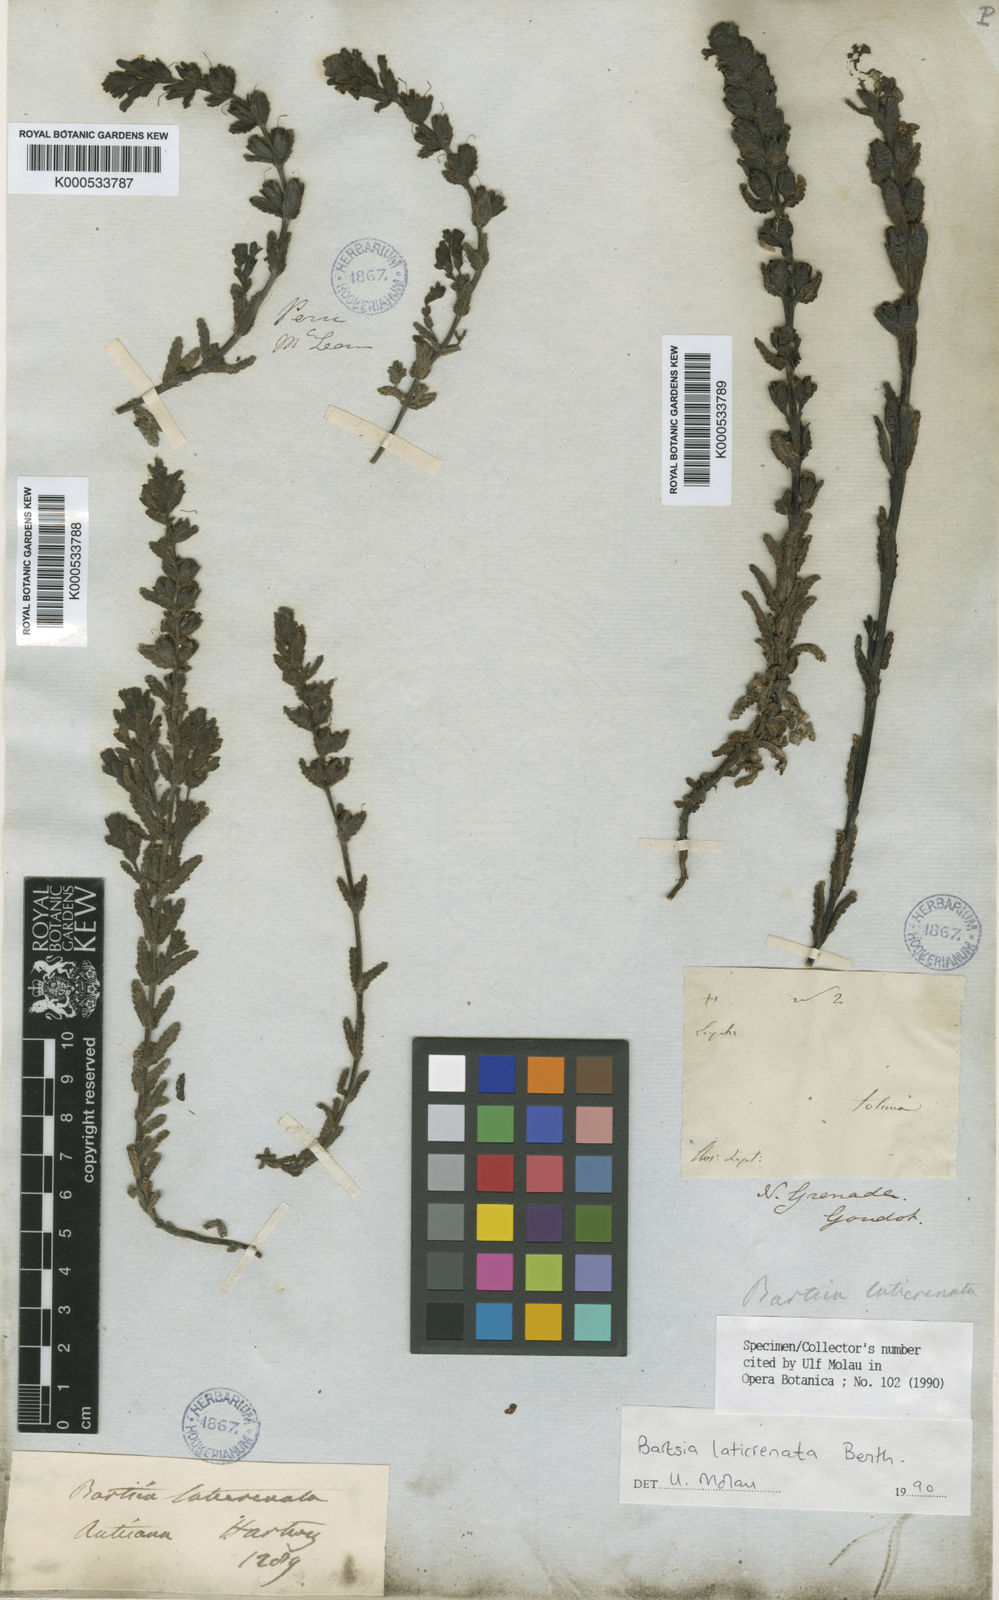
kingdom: Plantae
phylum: Tracheophyta
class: Magnoliopsida
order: Lamiales
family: Orobanchaceae
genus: Neobartsia
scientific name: Neobartsia laticrenata
